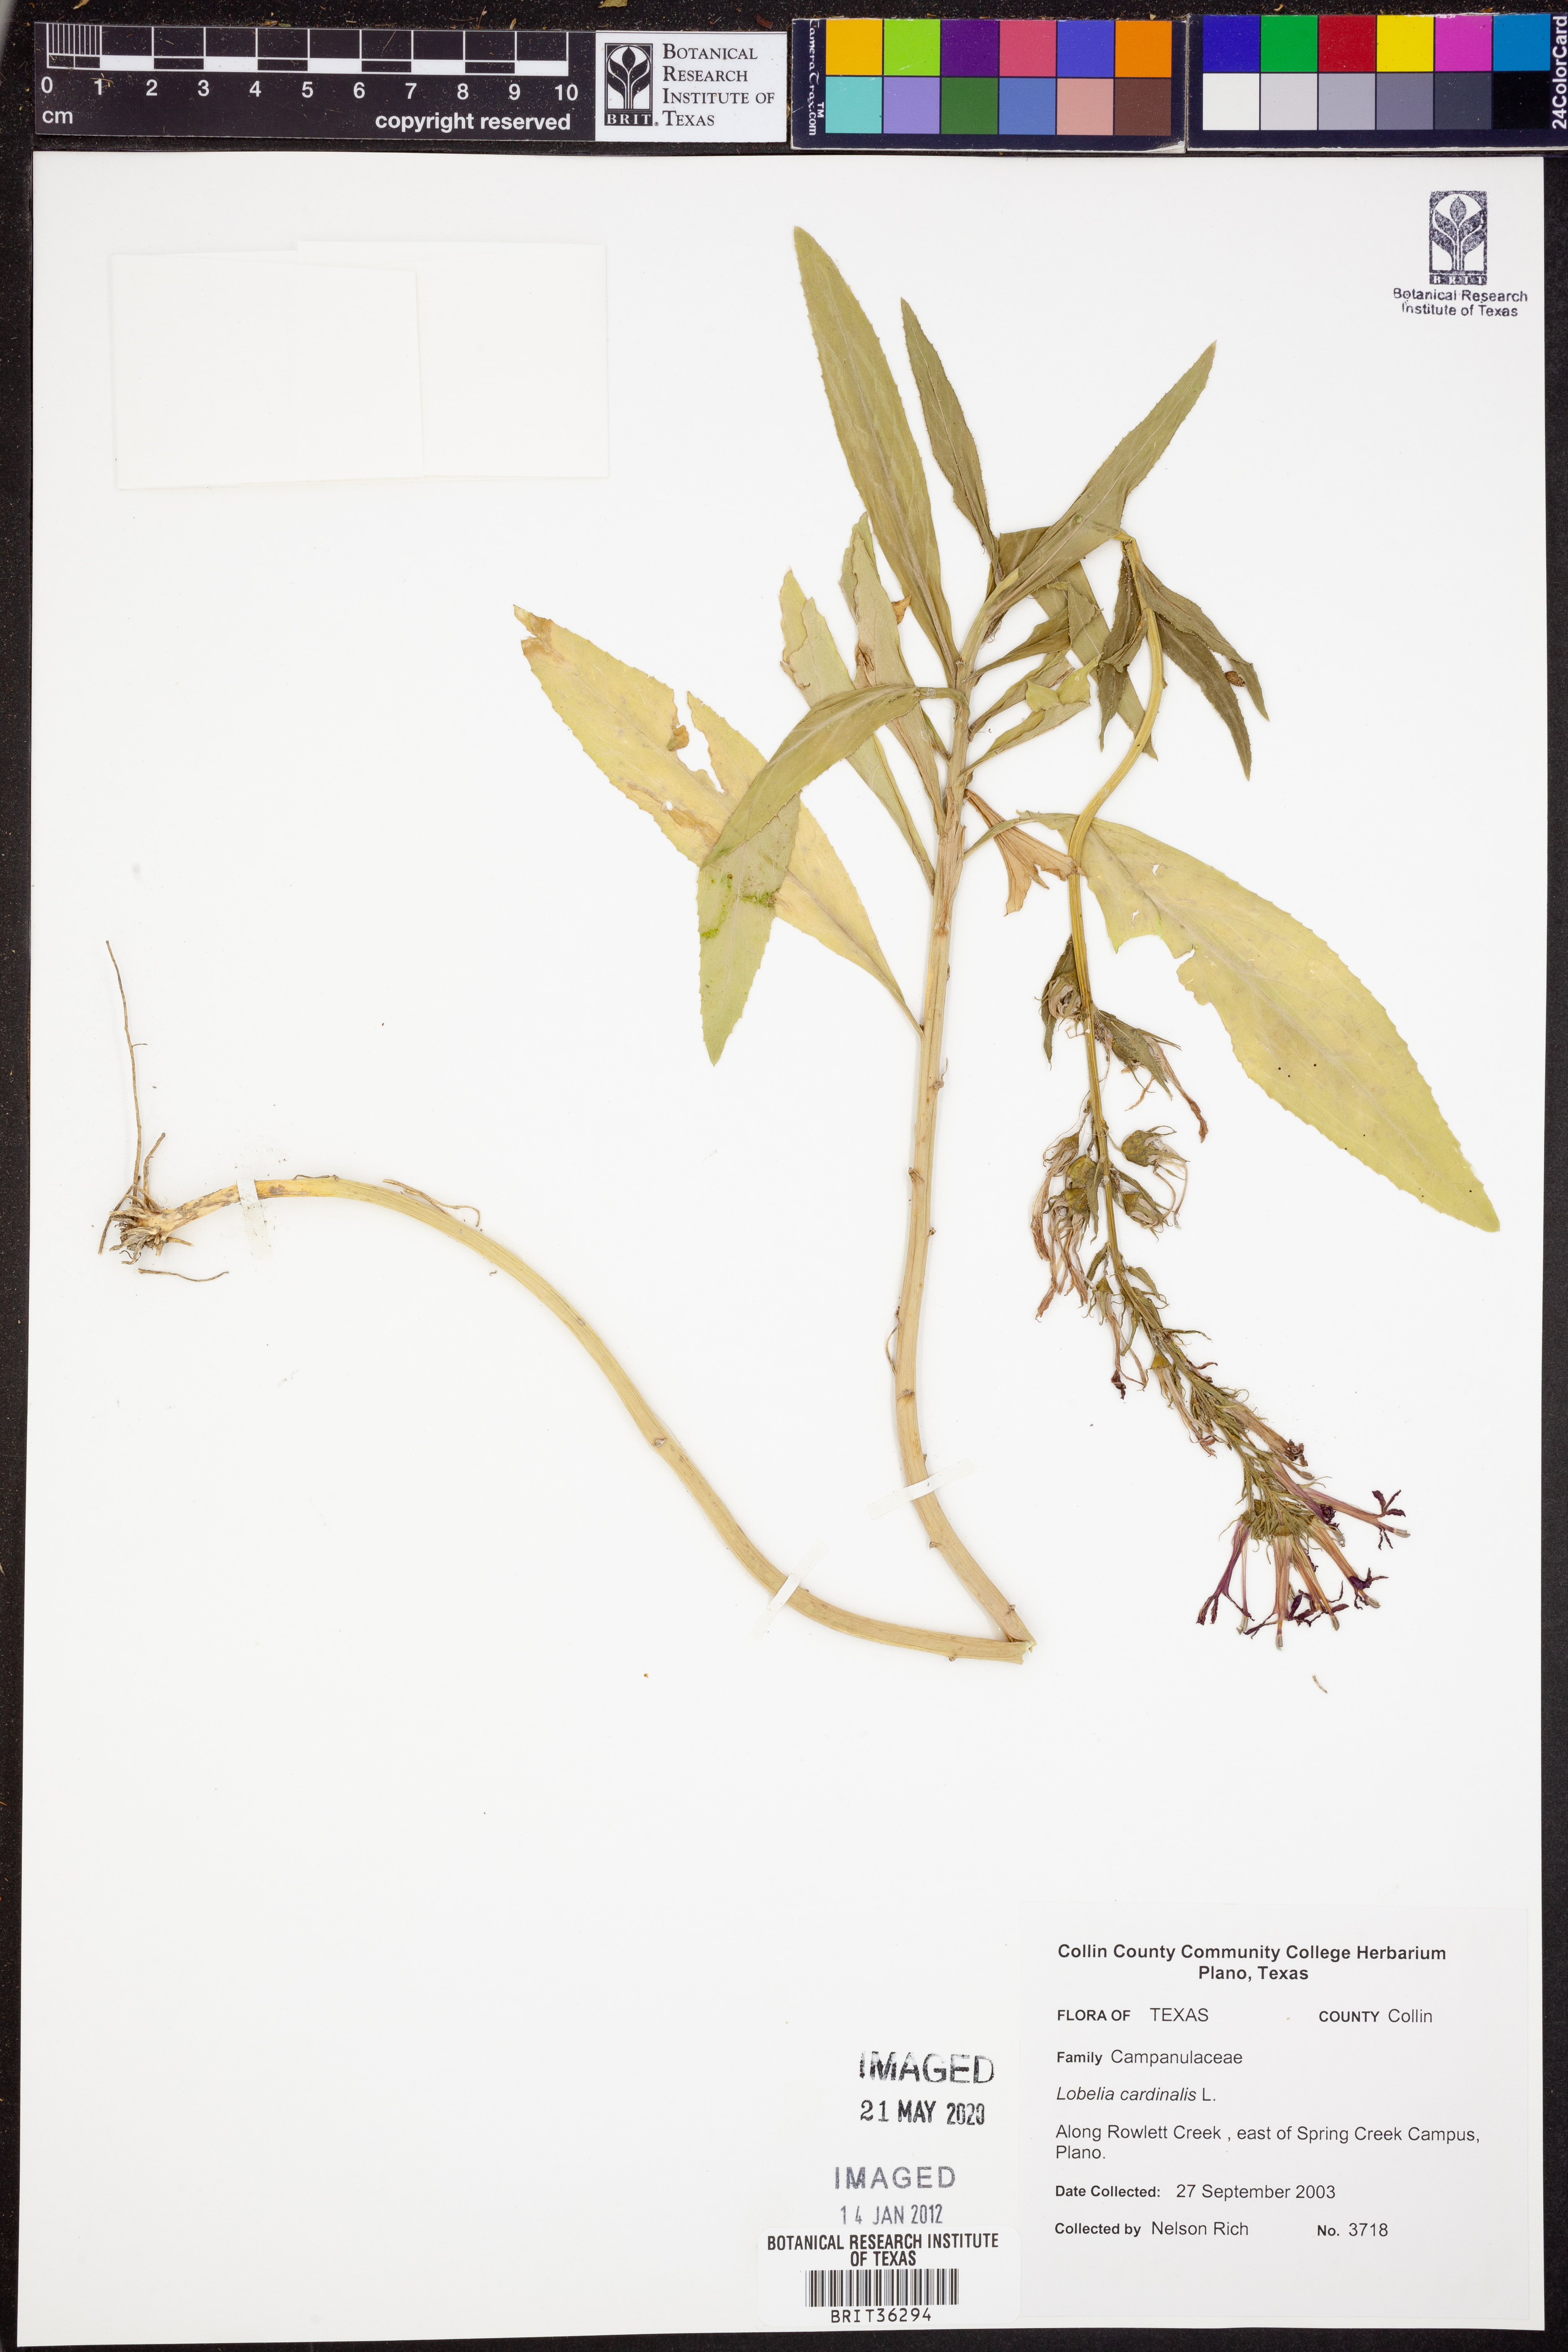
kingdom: Plantae
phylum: Tracheophyta
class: Magnoliopsida
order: Asterales
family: Campanulaceae
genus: Lobelia
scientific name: Lobelia cardinalis
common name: Cardinal flower
